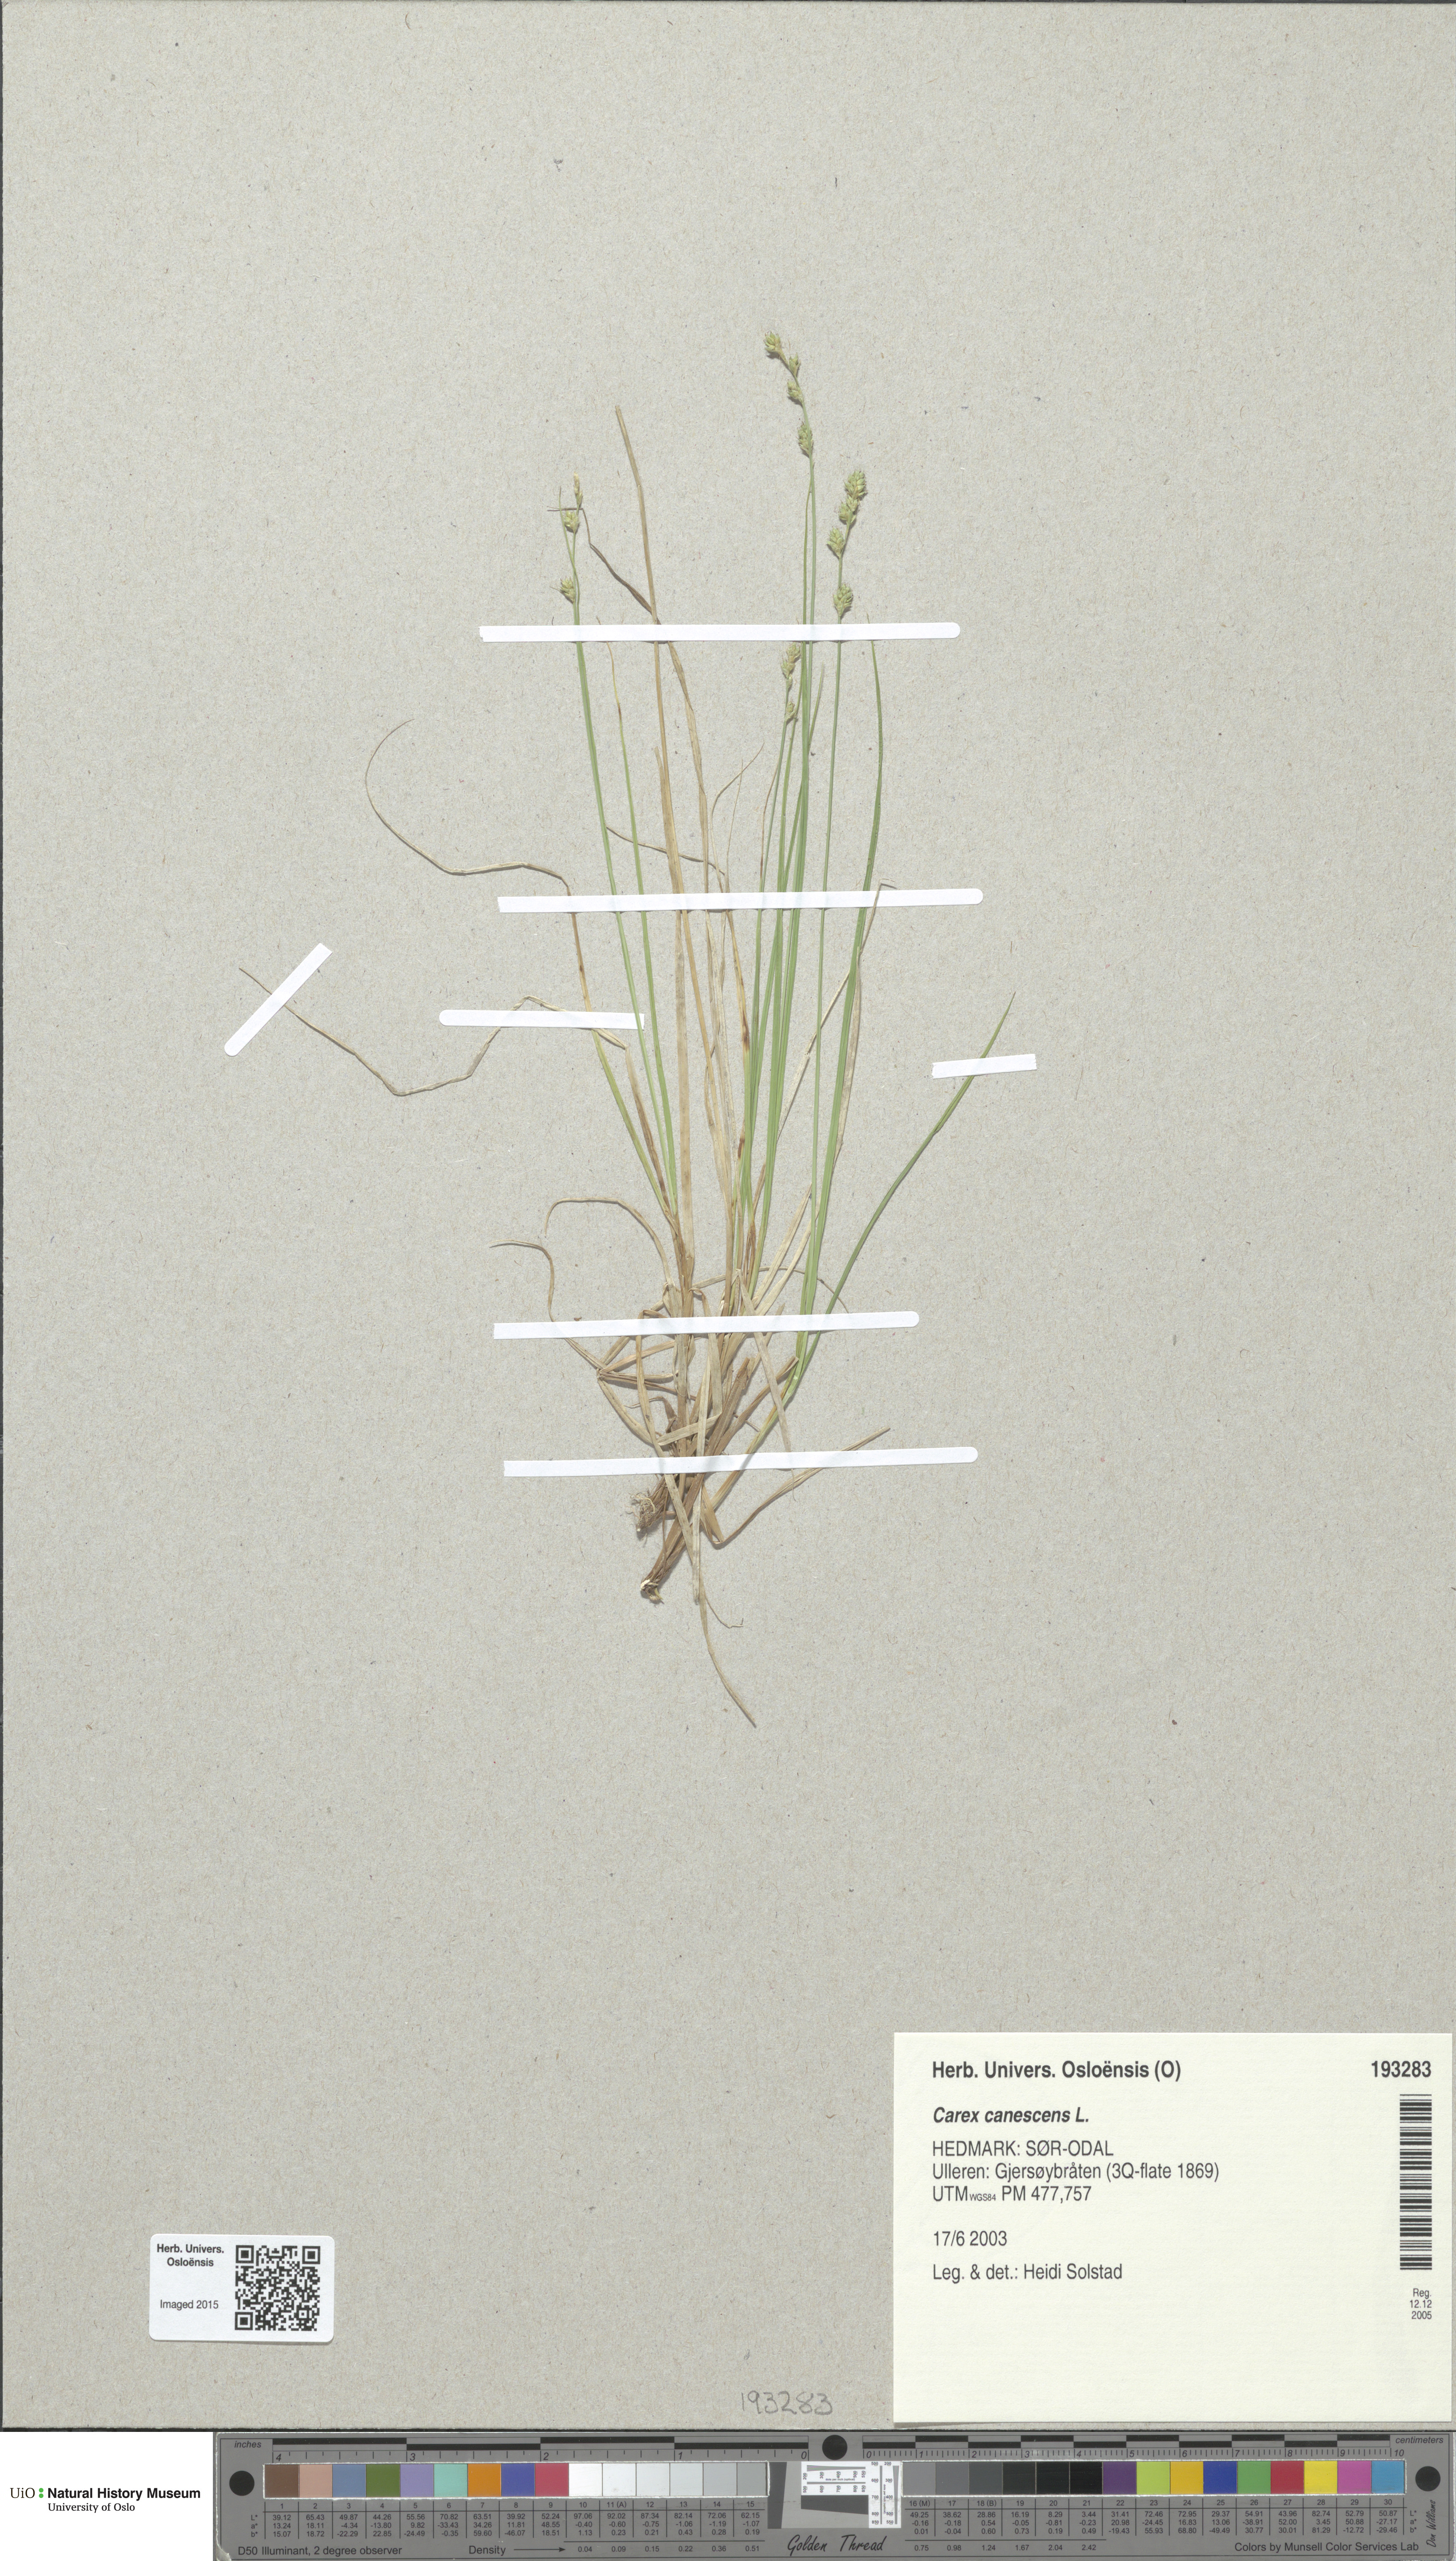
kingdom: Plantae
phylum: Tracheophyta
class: Liliopsida
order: Poales
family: Cyperaceae
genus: Carex
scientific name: Carex canescens
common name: White sedge
